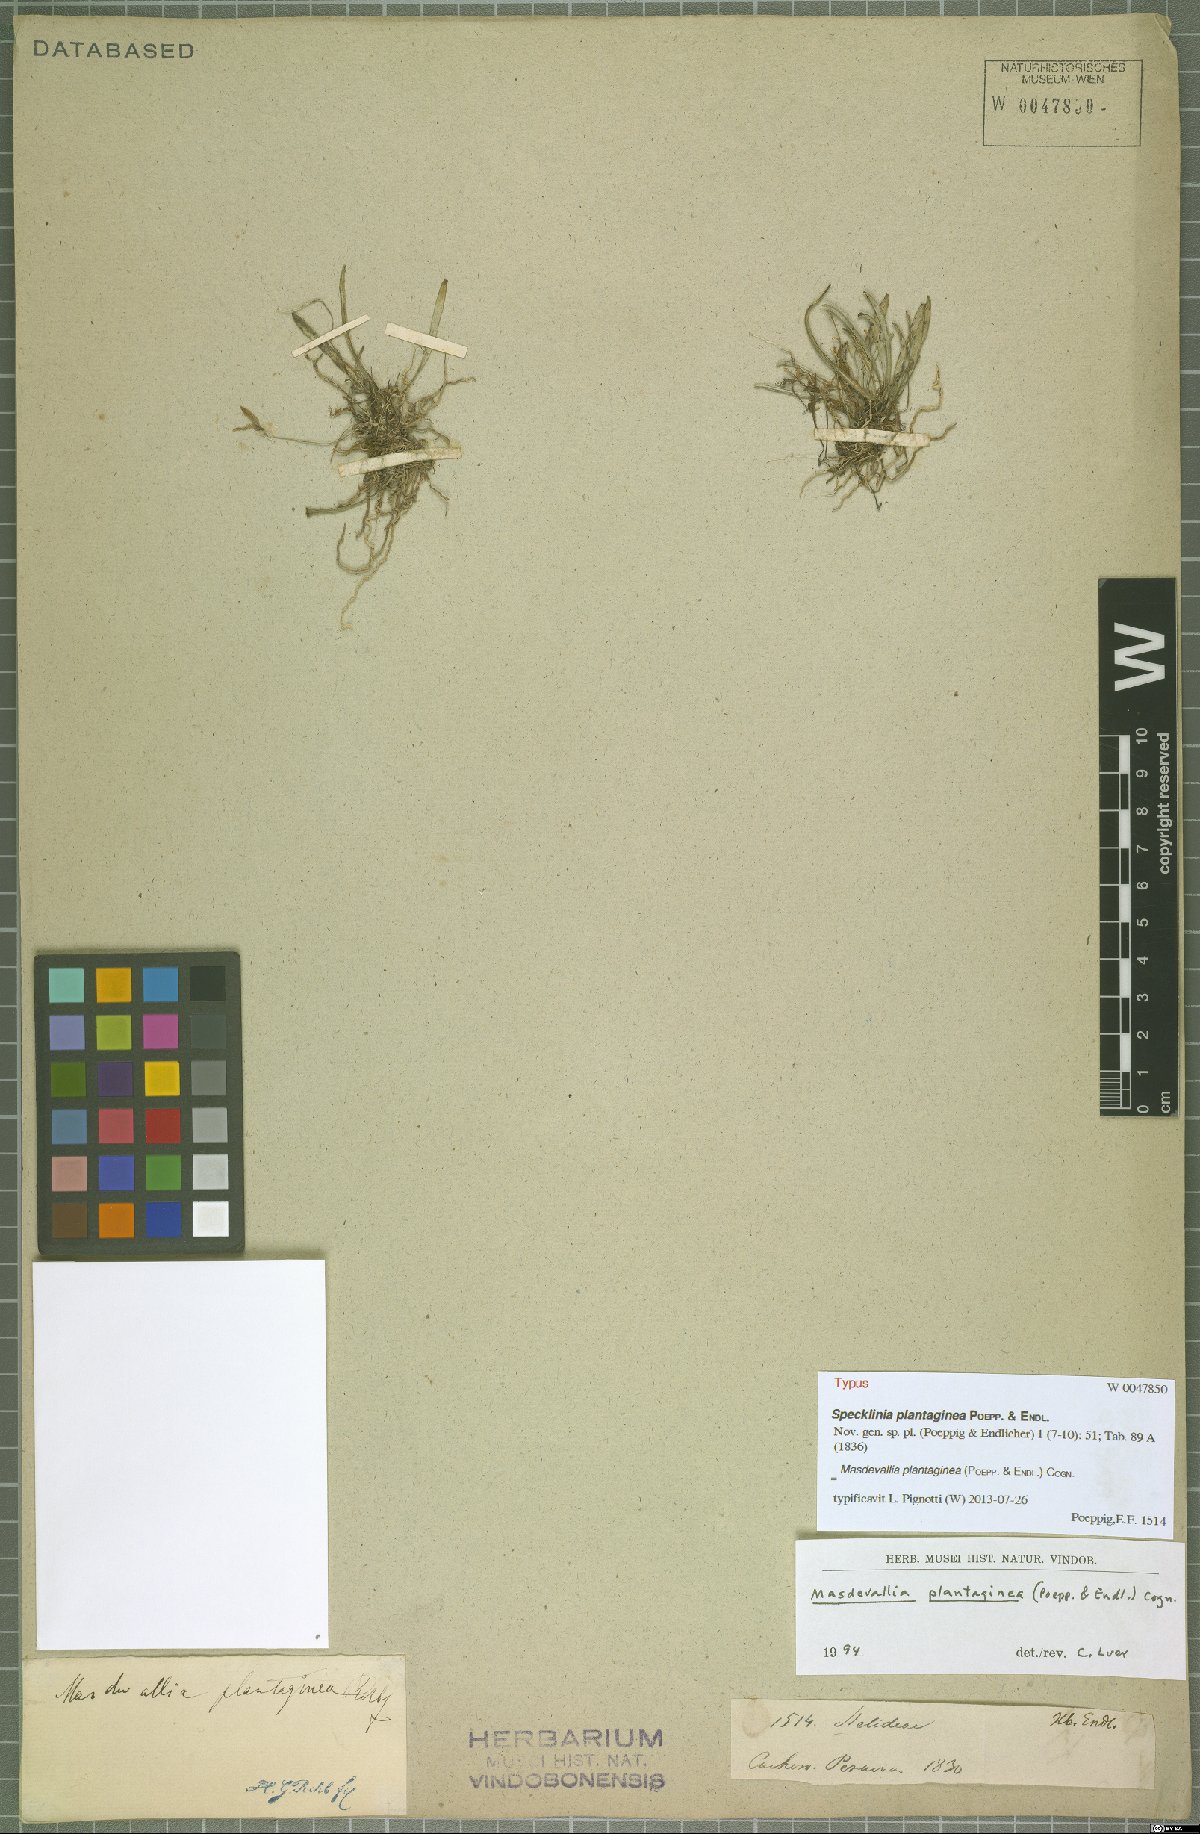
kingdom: Plantae
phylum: Tracheophyta
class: Liliopsida
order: Asparagales
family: Orchidaceae
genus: Masdevallia
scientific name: Masdevallia plantaginea
